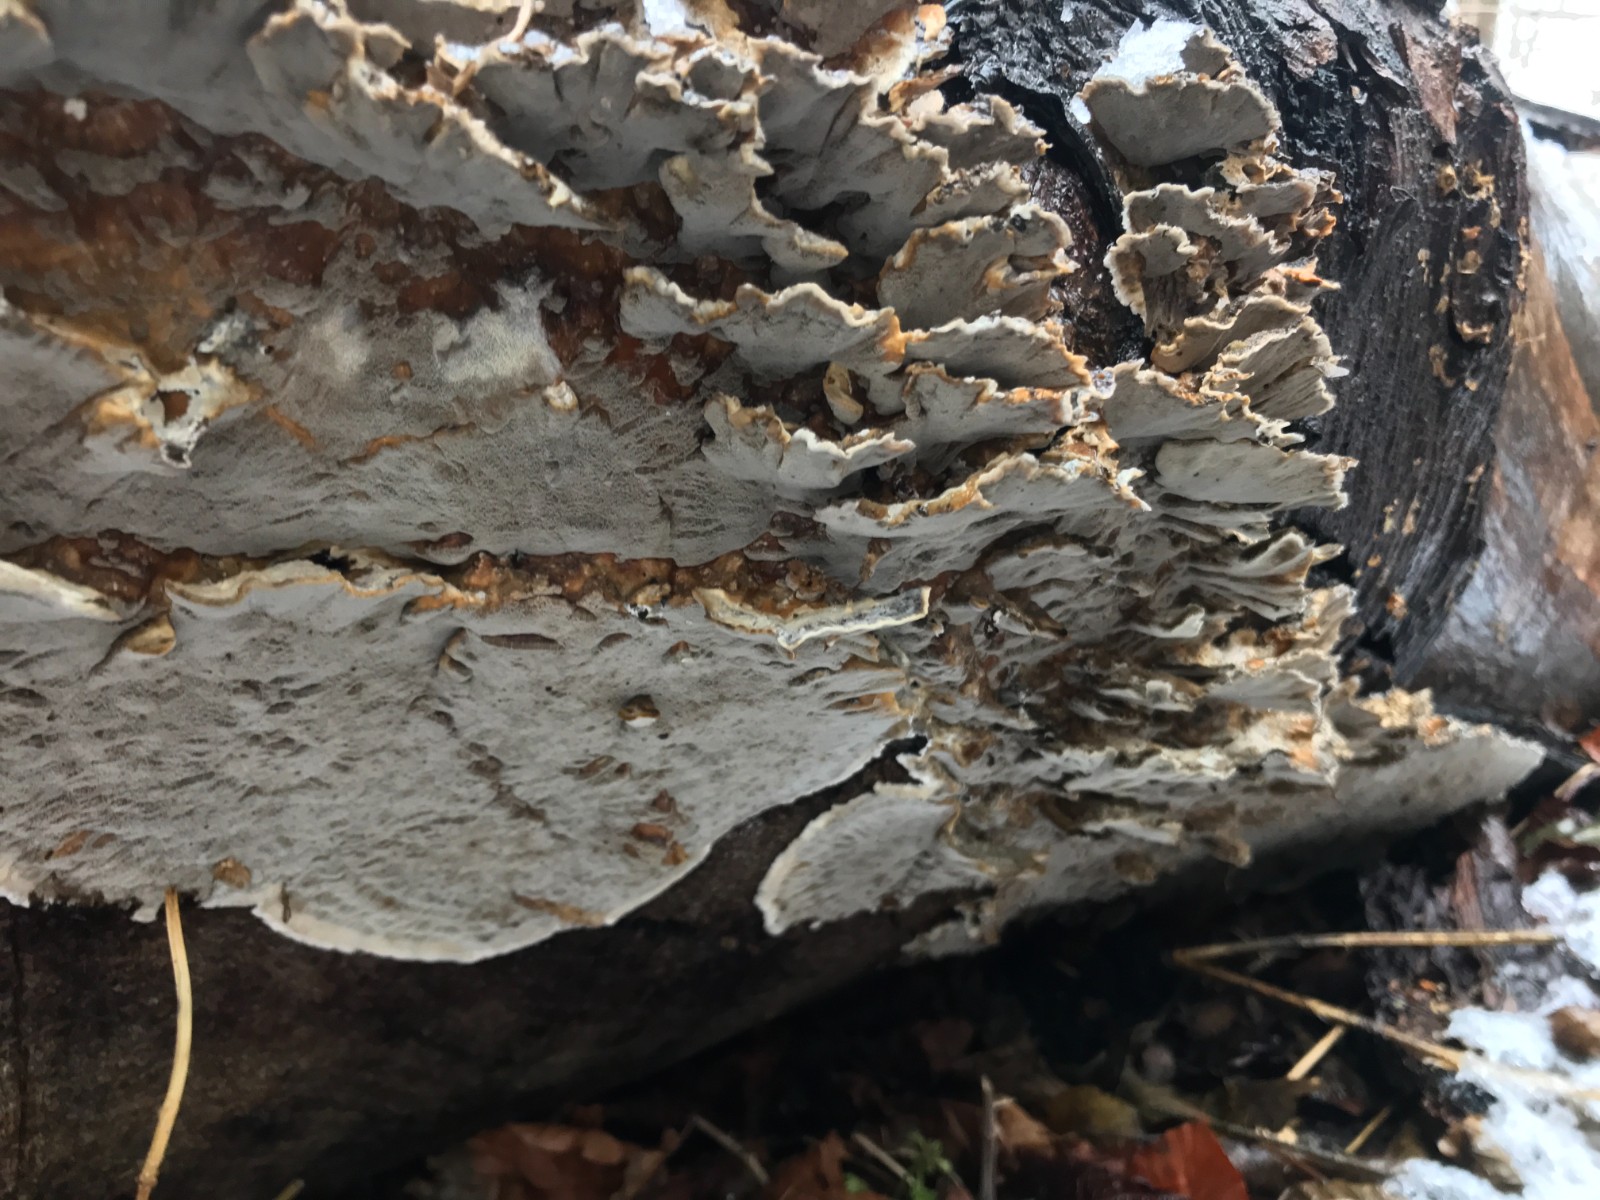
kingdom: Fungi
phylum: Basidiomycota
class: Agaricomycetes
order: Polyporales
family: Phanerochaetaceae
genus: Bjerkandera
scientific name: Bjerkandera adusta
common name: sveden sodporesvamp
